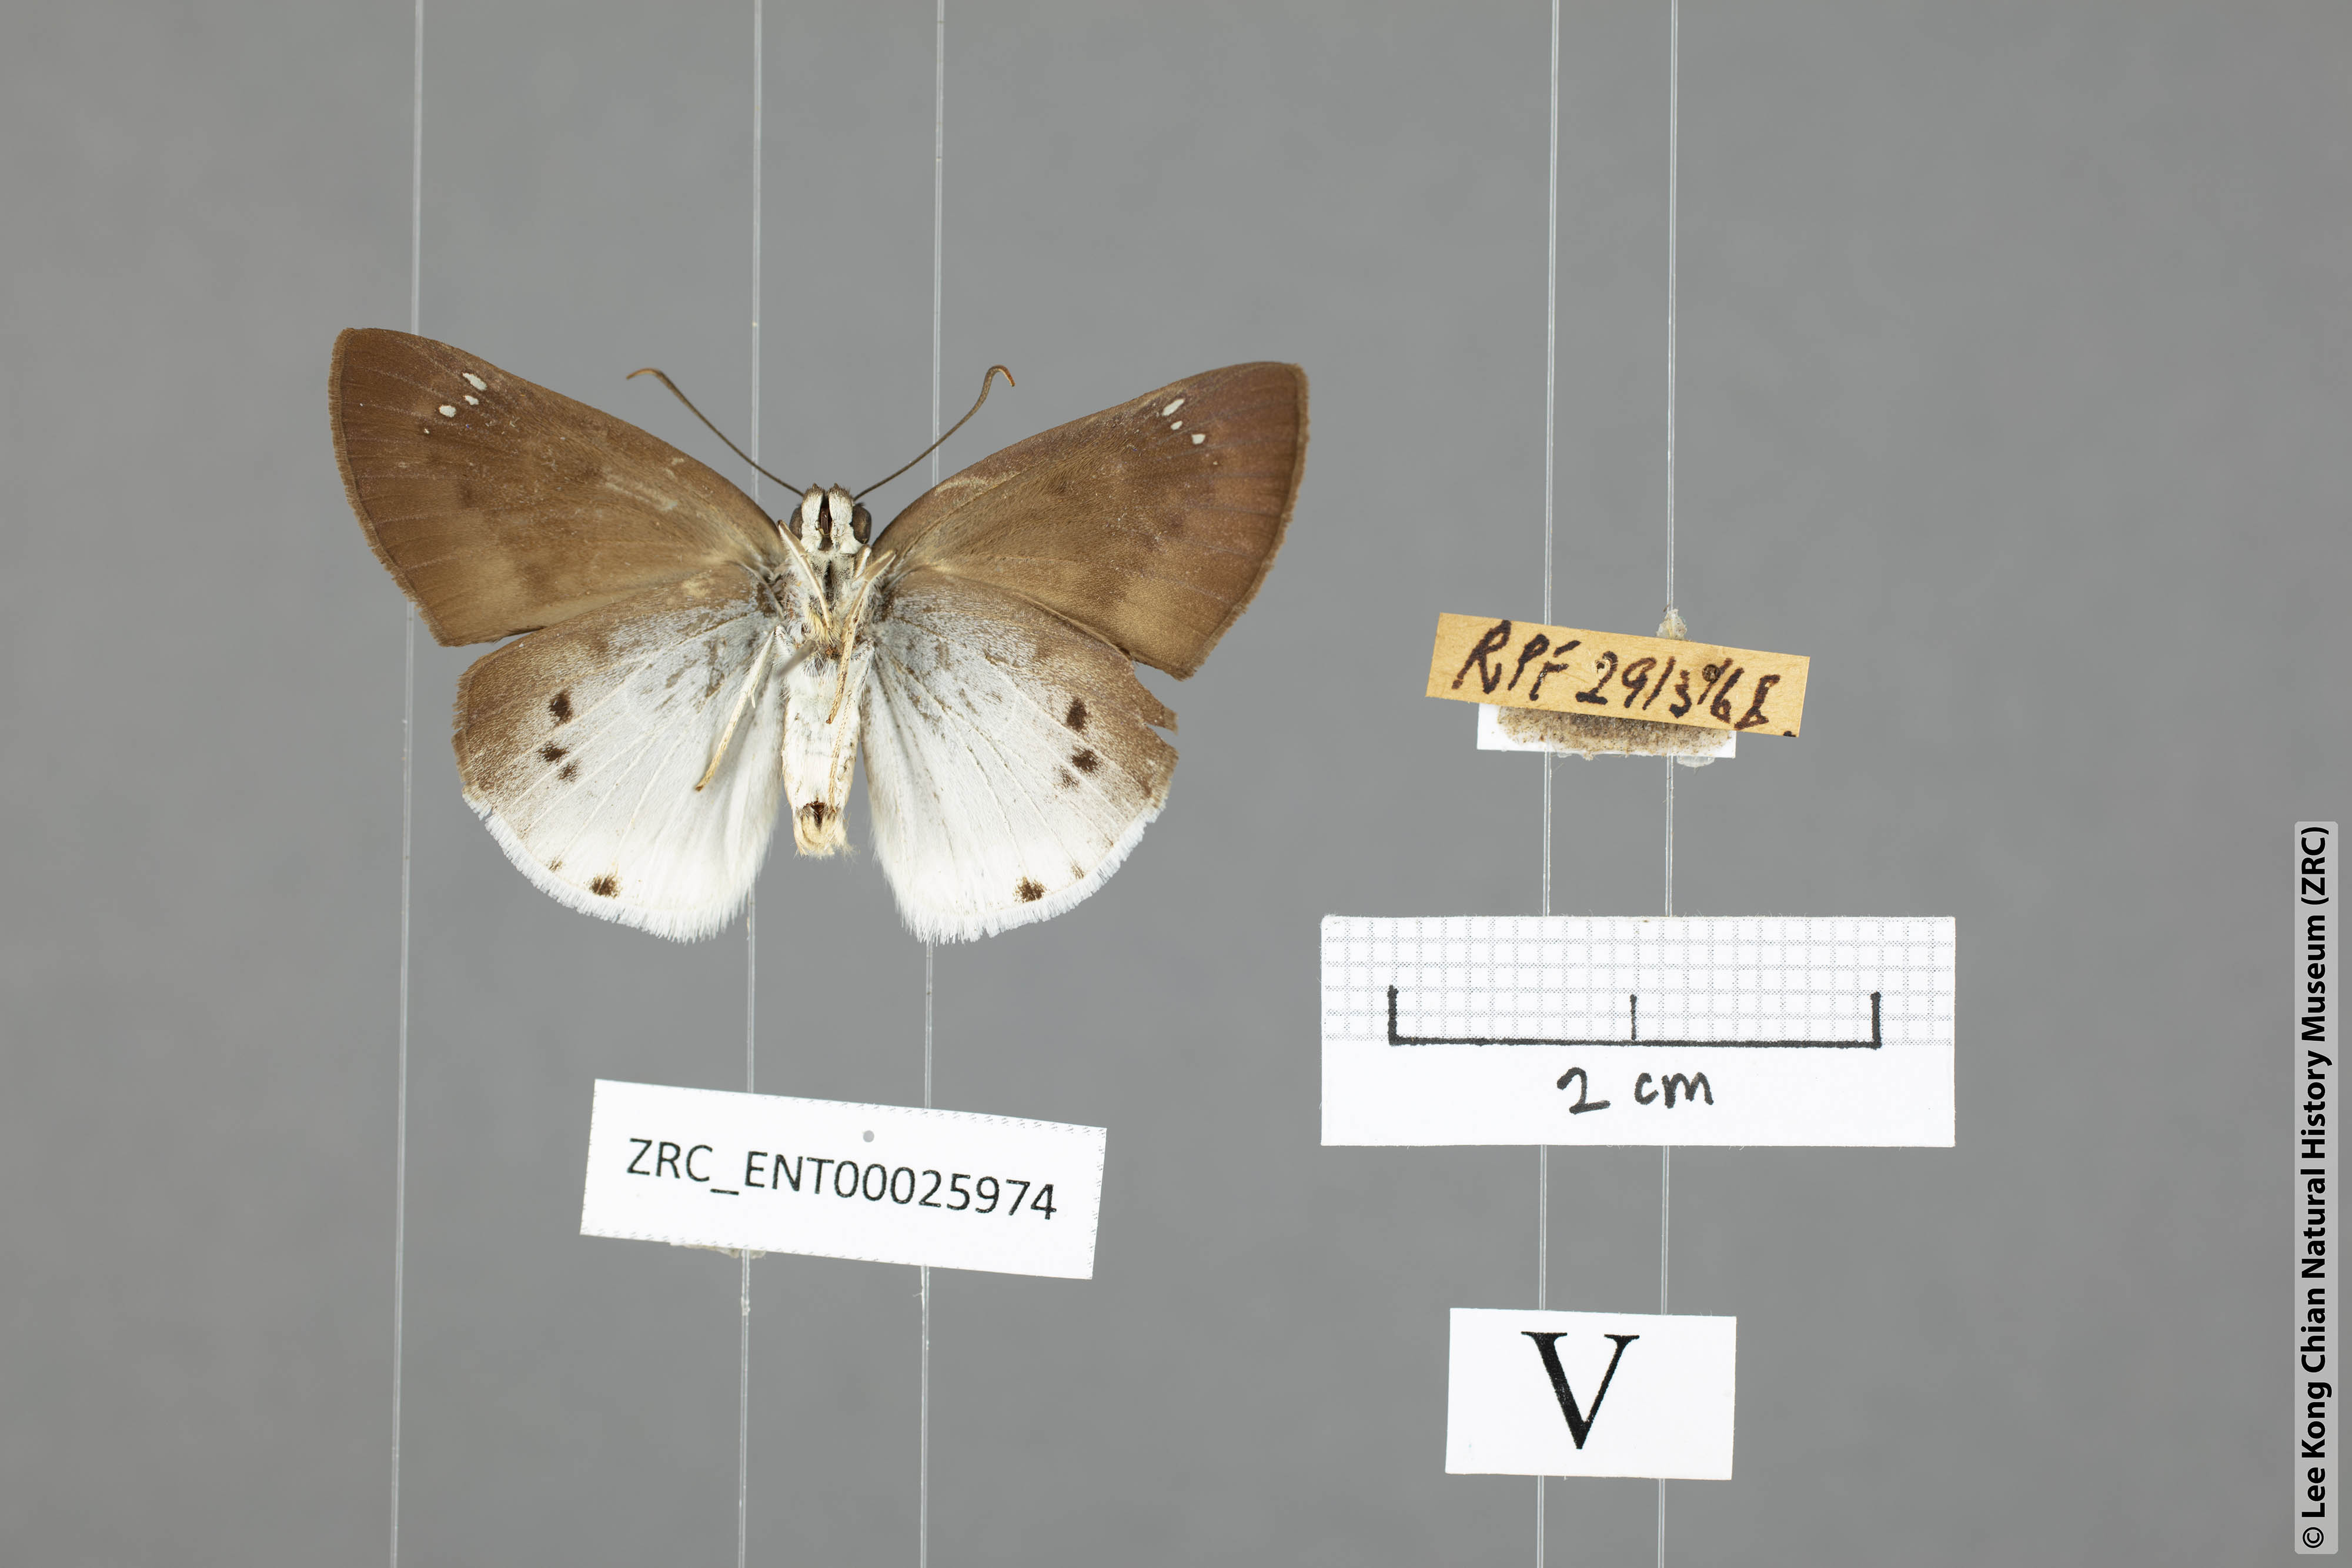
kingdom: Animalia
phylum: Arthropoda
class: Insecta
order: Lepidoptera
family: Hesperiidae
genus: Tagiades
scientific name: Tagiades gana
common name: Suffused snow flat
